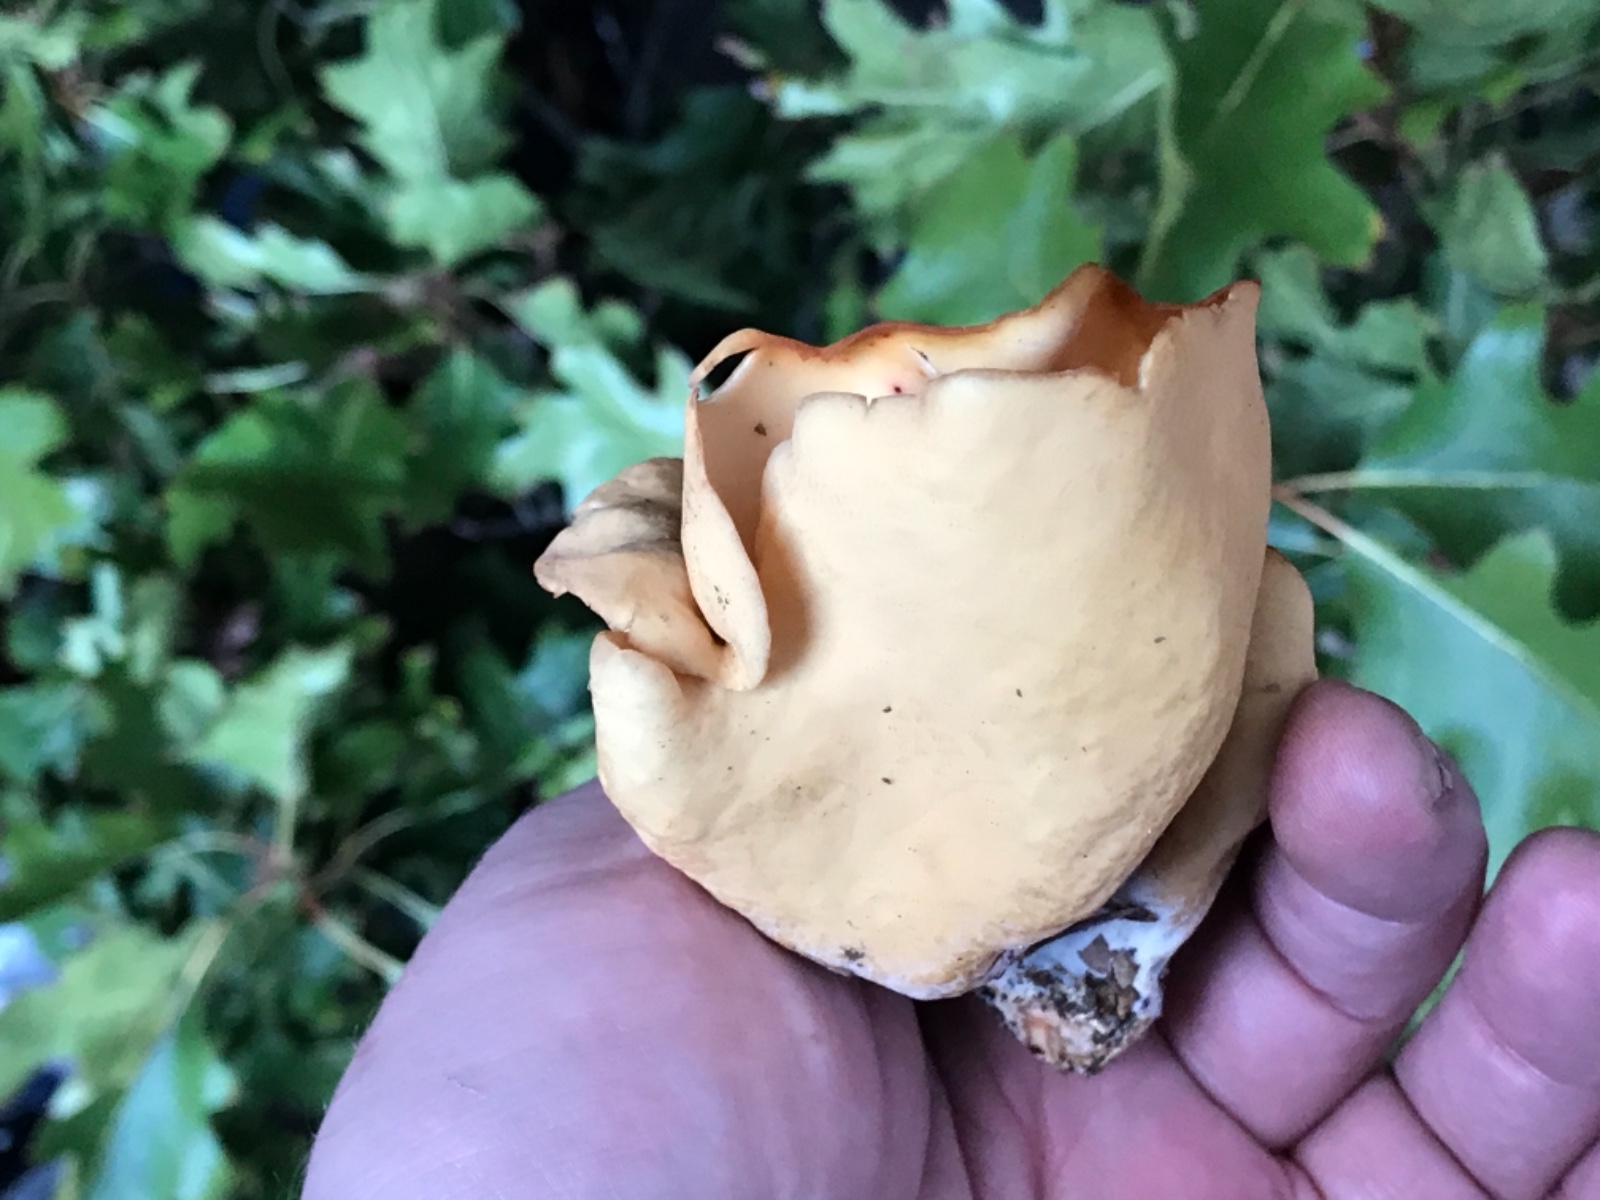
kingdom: Fungi
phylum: Ascomycota
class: Pezizomycetes
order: Pezizales
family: Otideaceae
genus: Otidea
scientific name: Otidea onotica
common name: æsel-ørebæger
